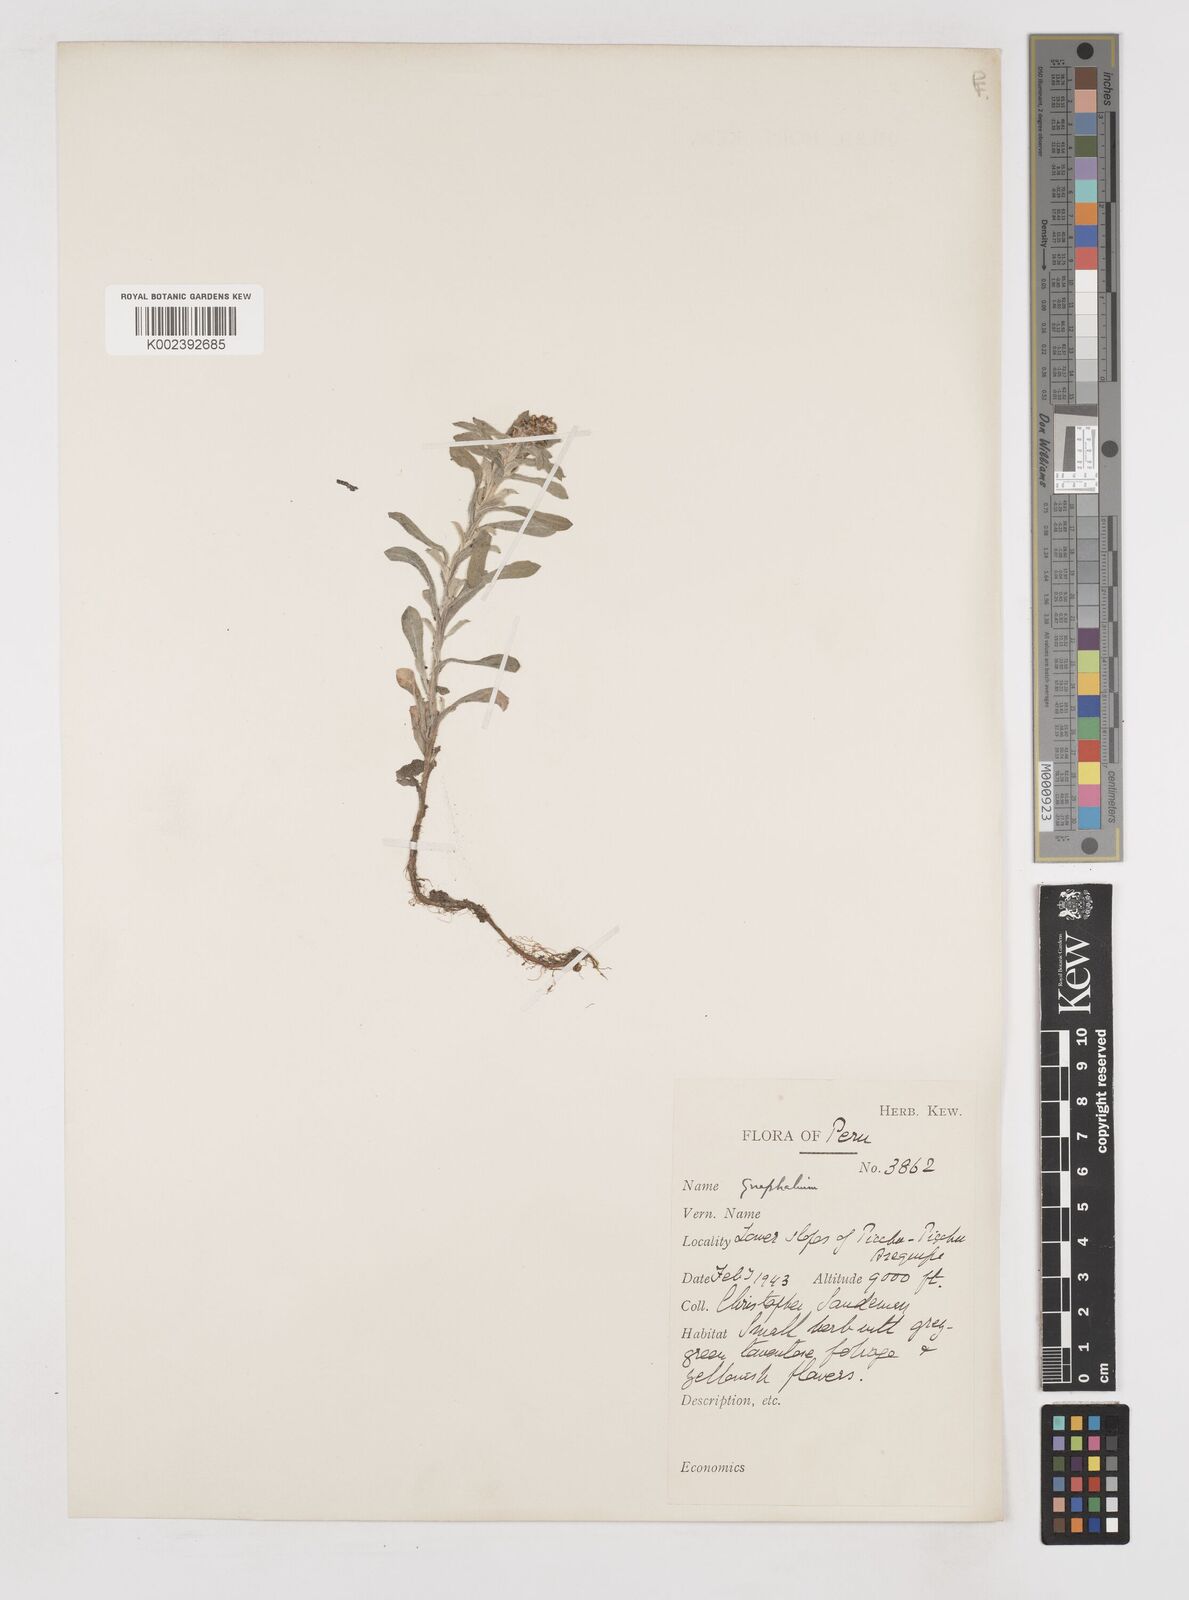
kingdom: Plantae
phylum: Tracheophyta
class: Magnoliopsida
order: Asterales
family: Asteraceae
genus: Gnaphalium
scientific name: Gnaphalium
